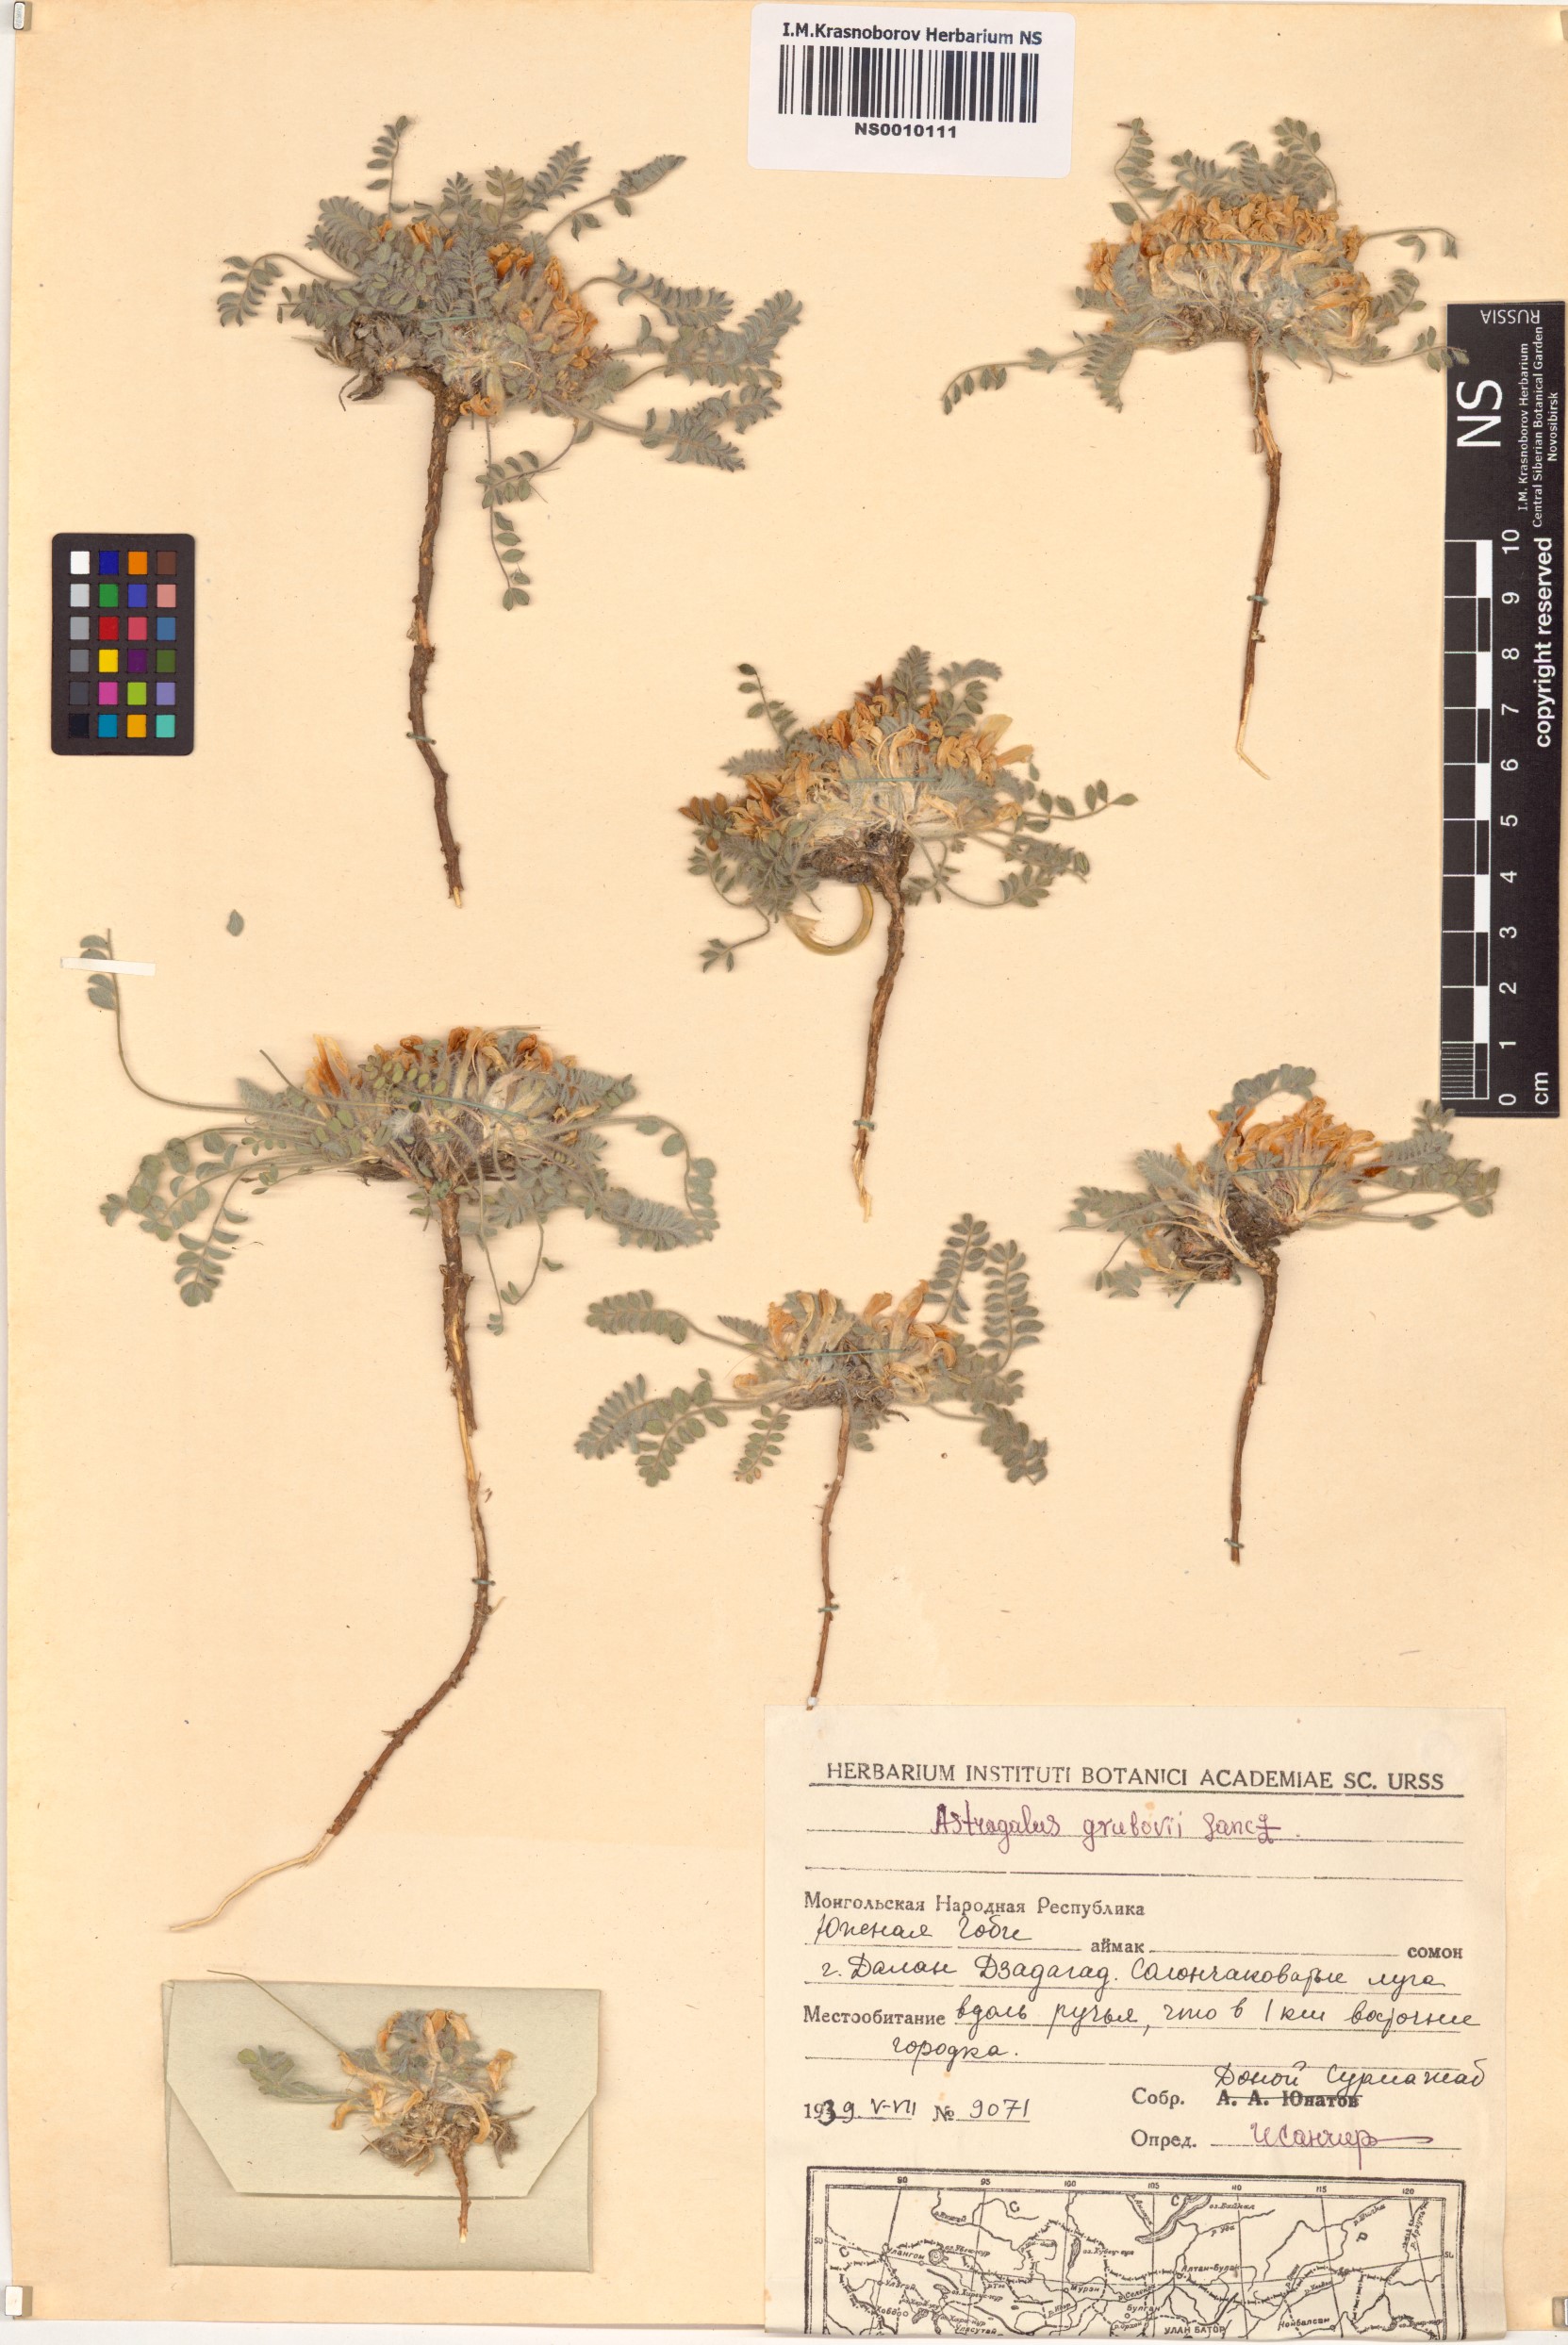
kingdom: Plantae
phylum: Tracheophyta
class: Magnoliopsida
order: Fabales
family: Fabaceae
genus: Astragalus
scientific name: Astragalus grubovii
